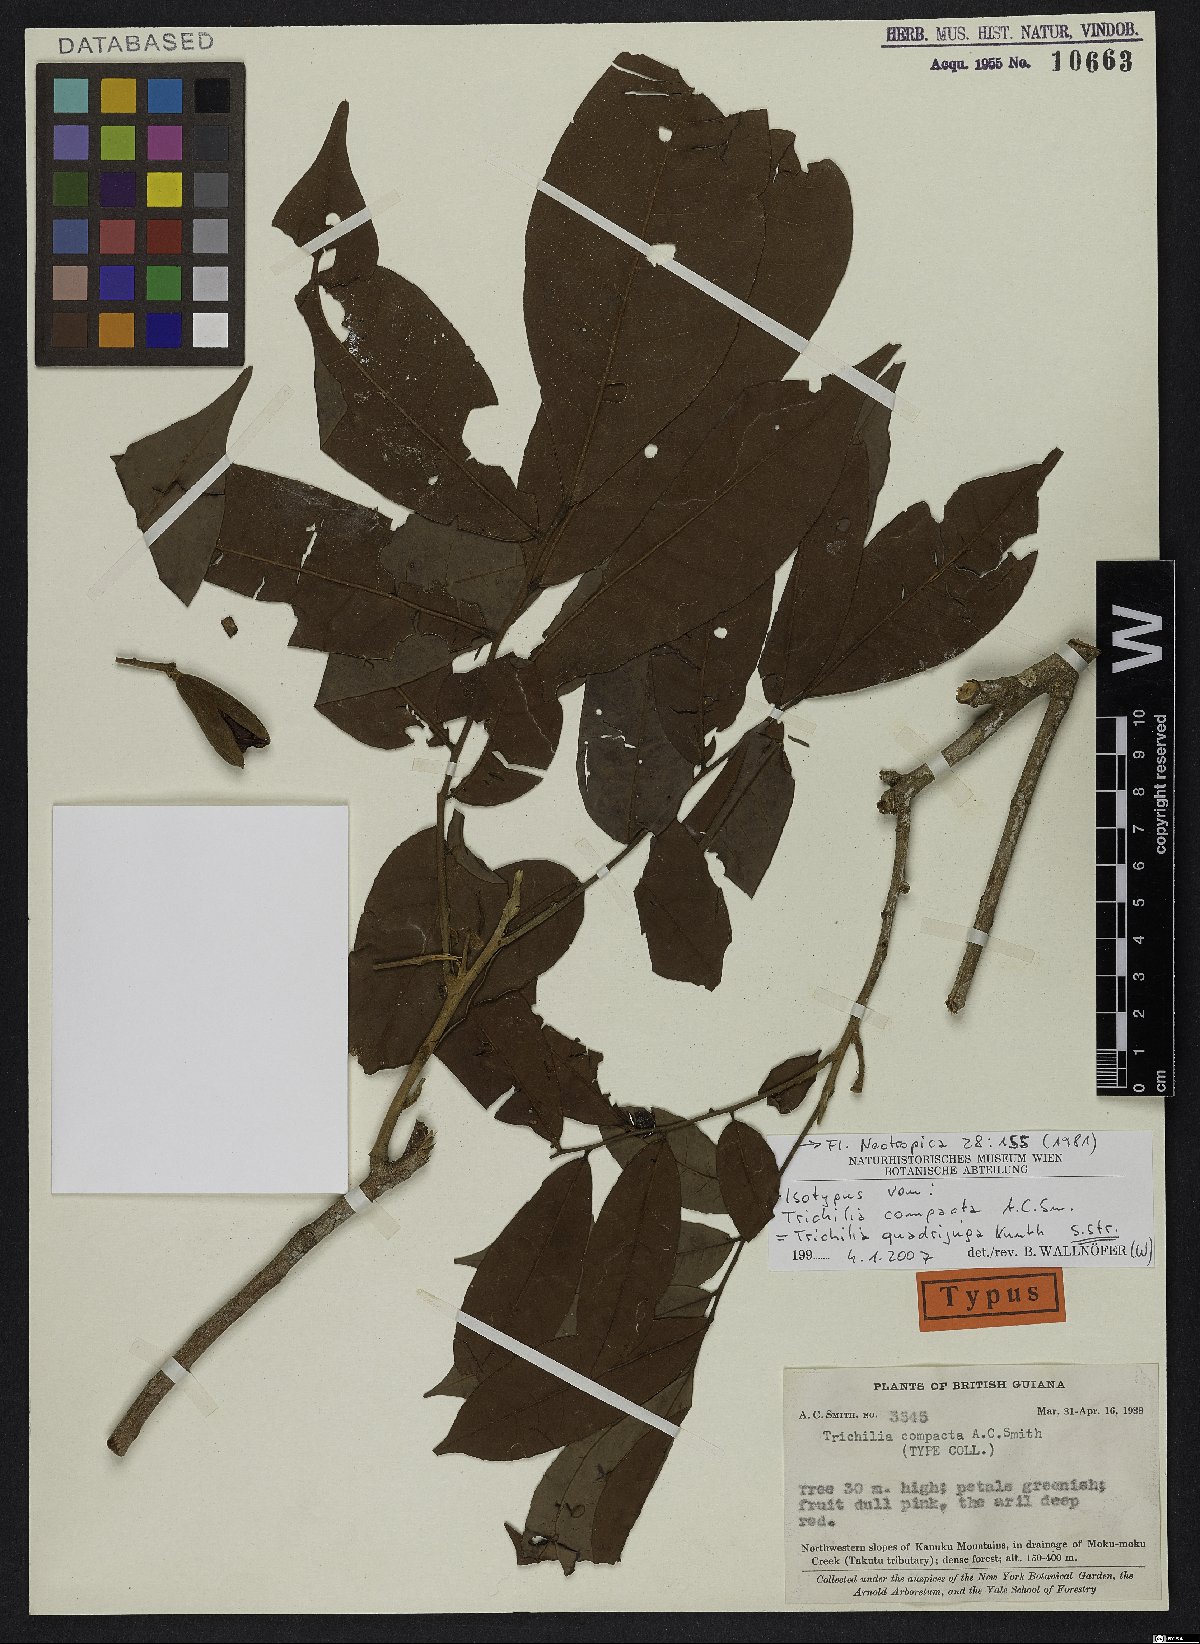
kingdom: Plantae
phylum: Tracheophyta
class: Magnoliopsida
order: Sapindales
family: Meliaceae
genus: Trichilia
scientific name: Trichilia quadrijuga
